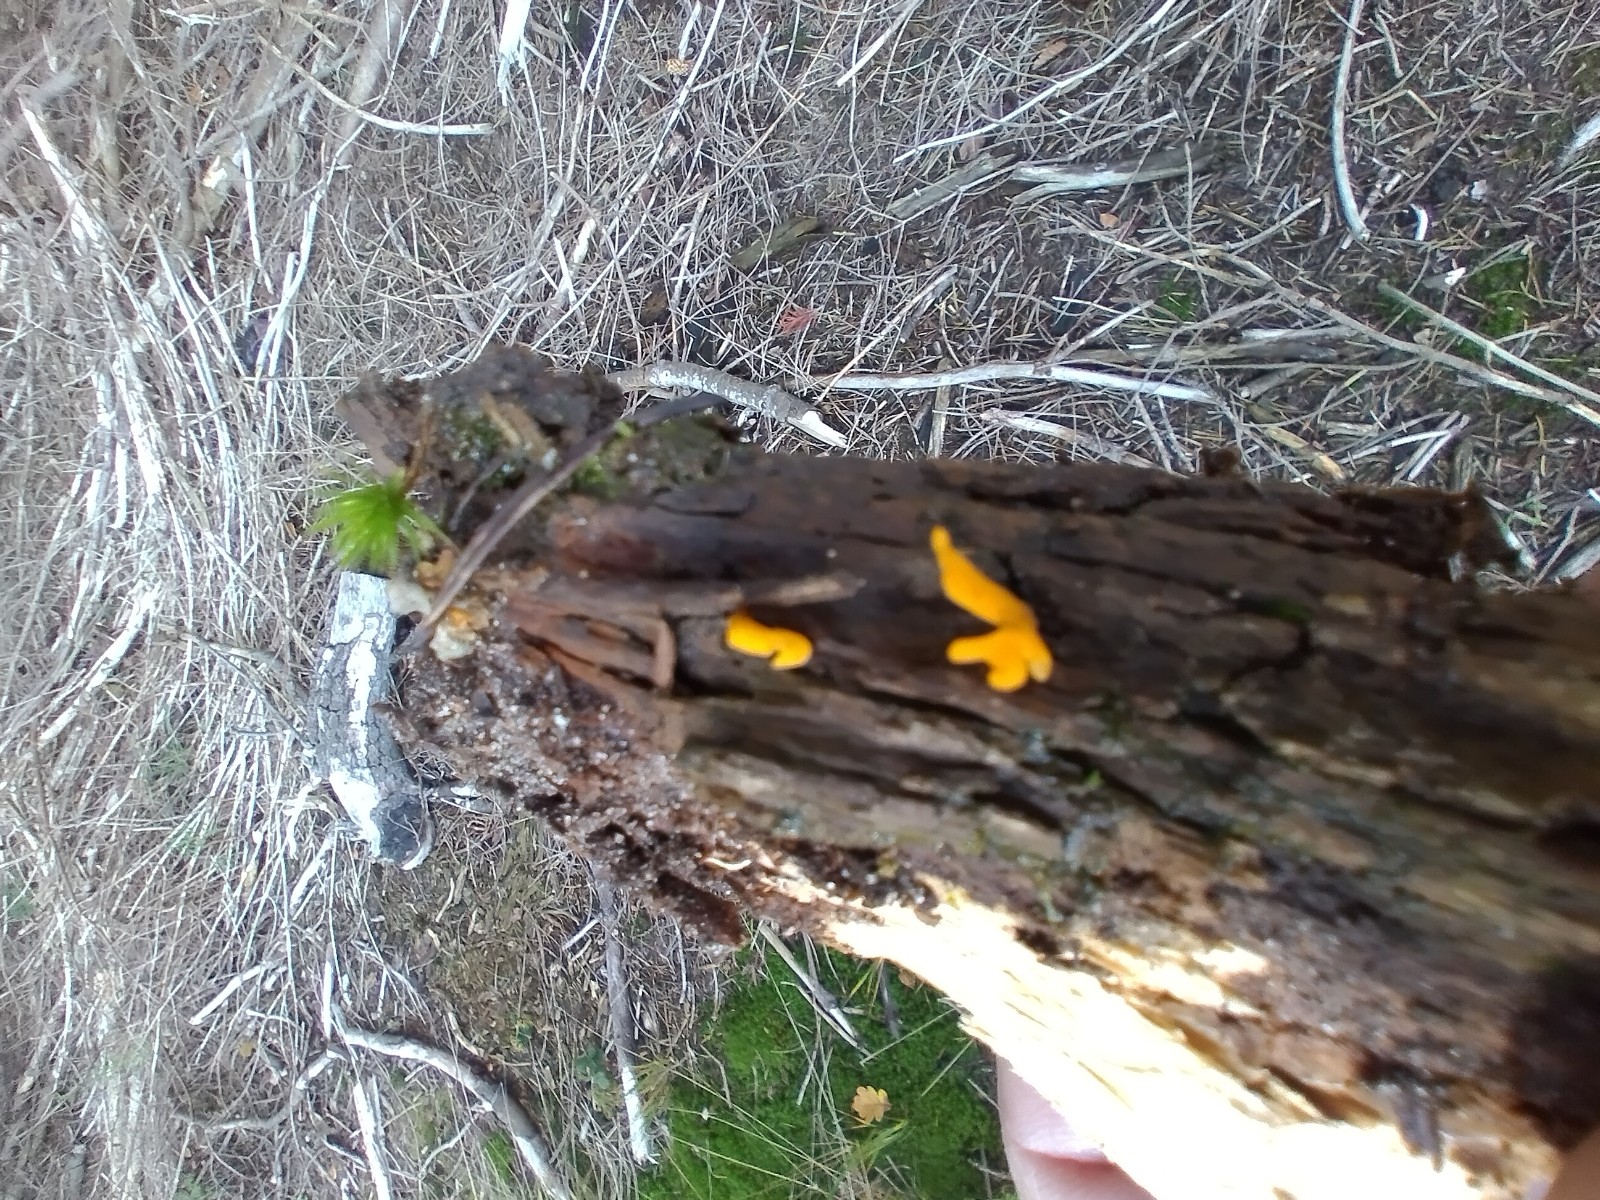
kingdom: Fungi
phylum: Basidiomycota
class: Dacrymycetes
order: Dacrymycetales
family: Dacrymycetaceae
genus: Calocera
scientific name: Calocera cornea
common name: liden guldgaffel
